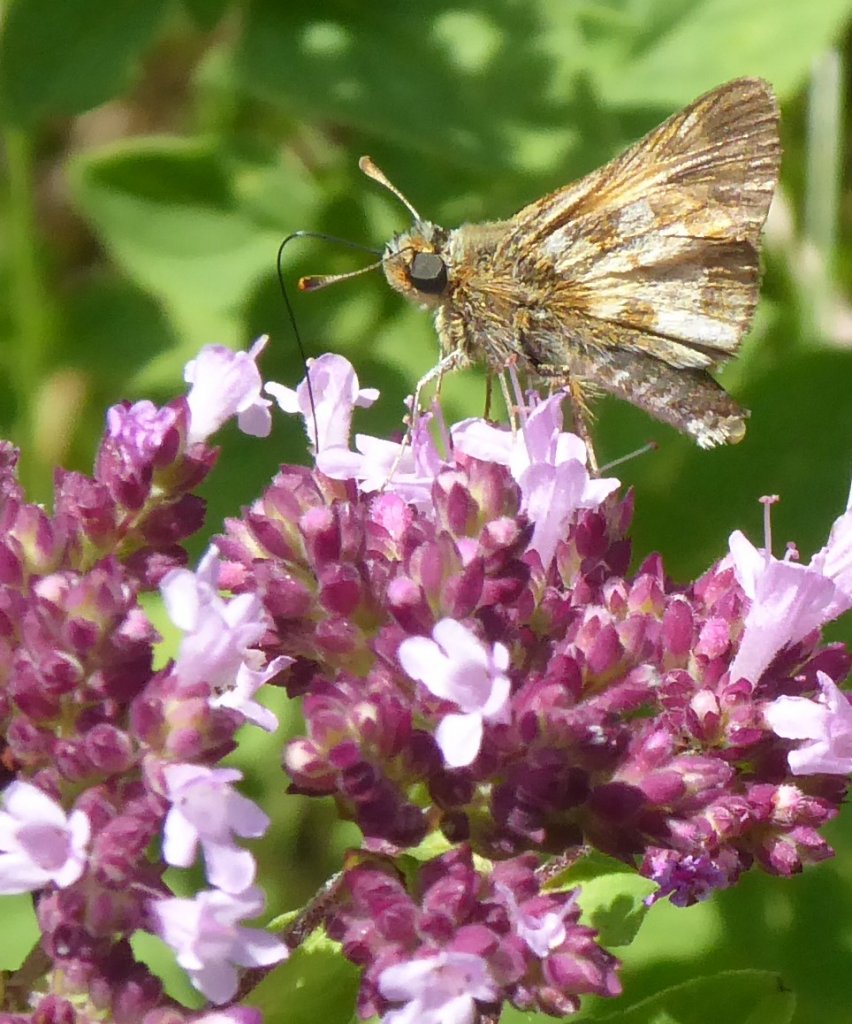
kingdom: Animalia
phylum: Arthropoda
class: Insecta
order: Lepidoptera
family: Hesperiidae
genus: Polites
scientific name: Polites coras
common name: Peck's Skipper
